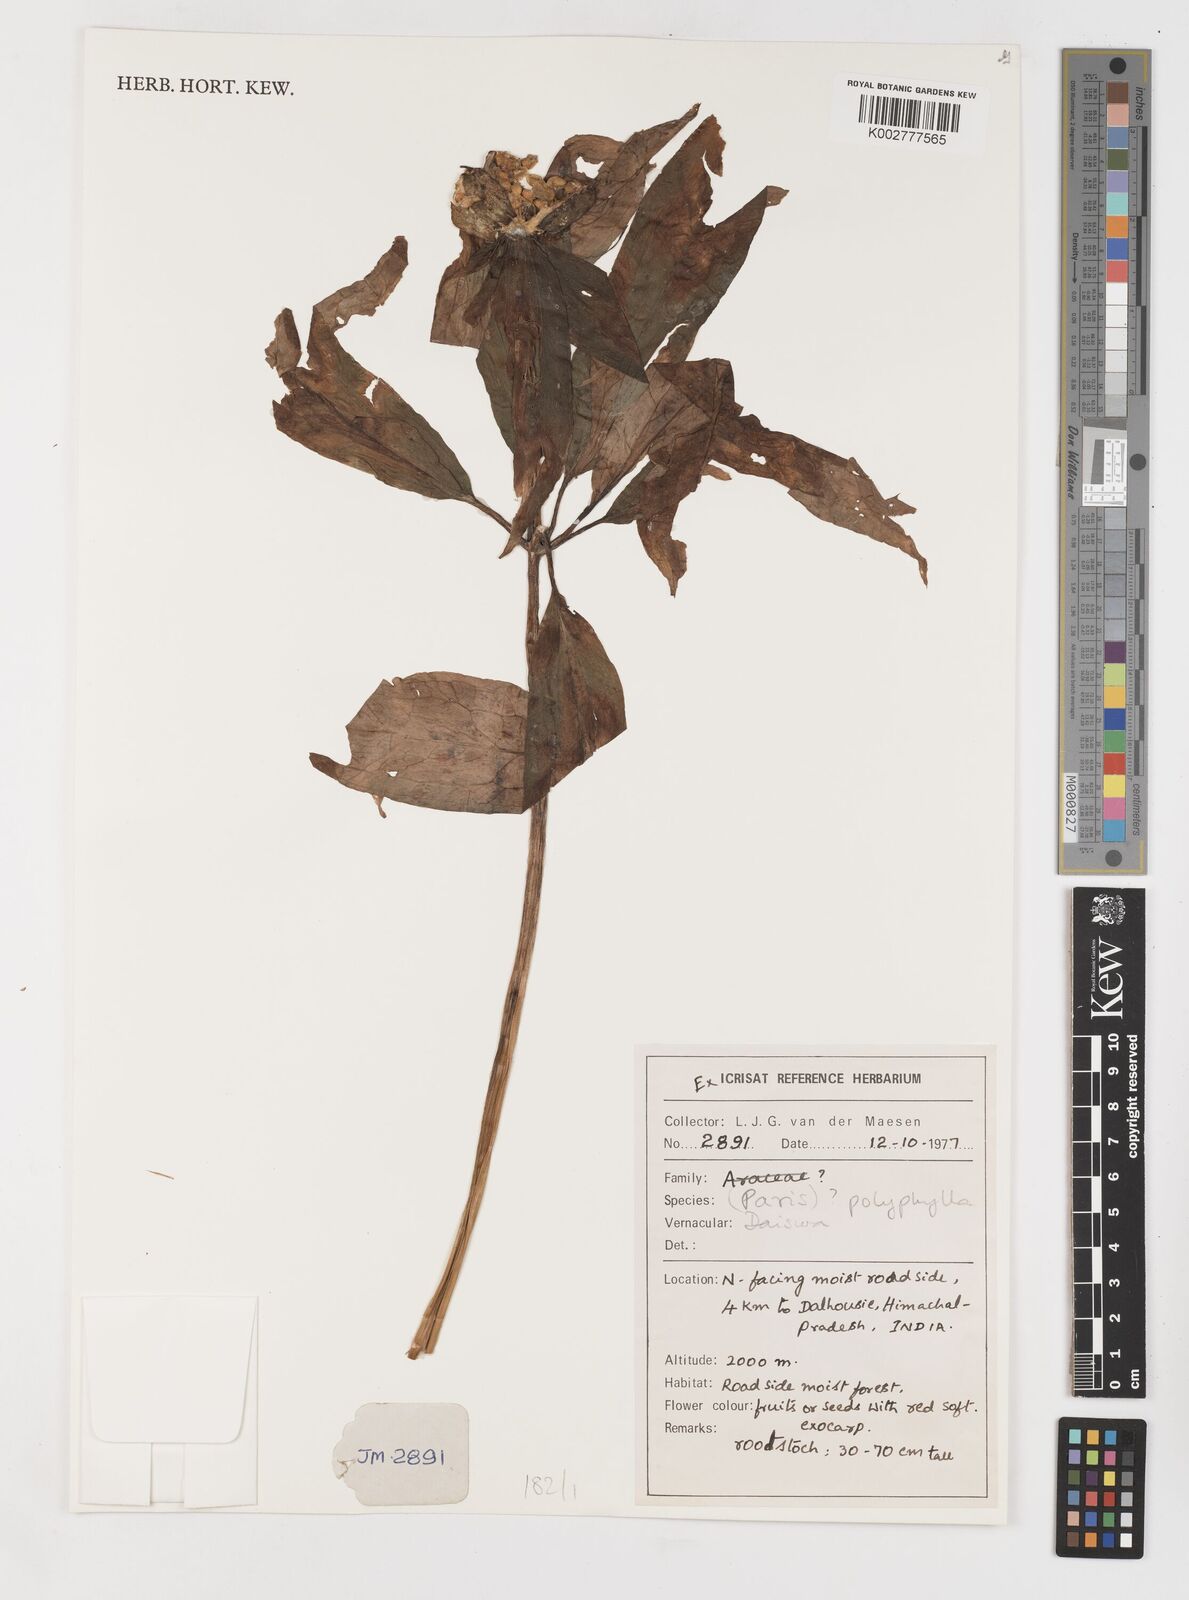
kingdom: Plantae
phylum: Tracheophyta
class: Liliopsida
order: Liliales
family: Melanthiaceae
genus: Paris
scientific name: Paris polyphylla
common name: Love apple
